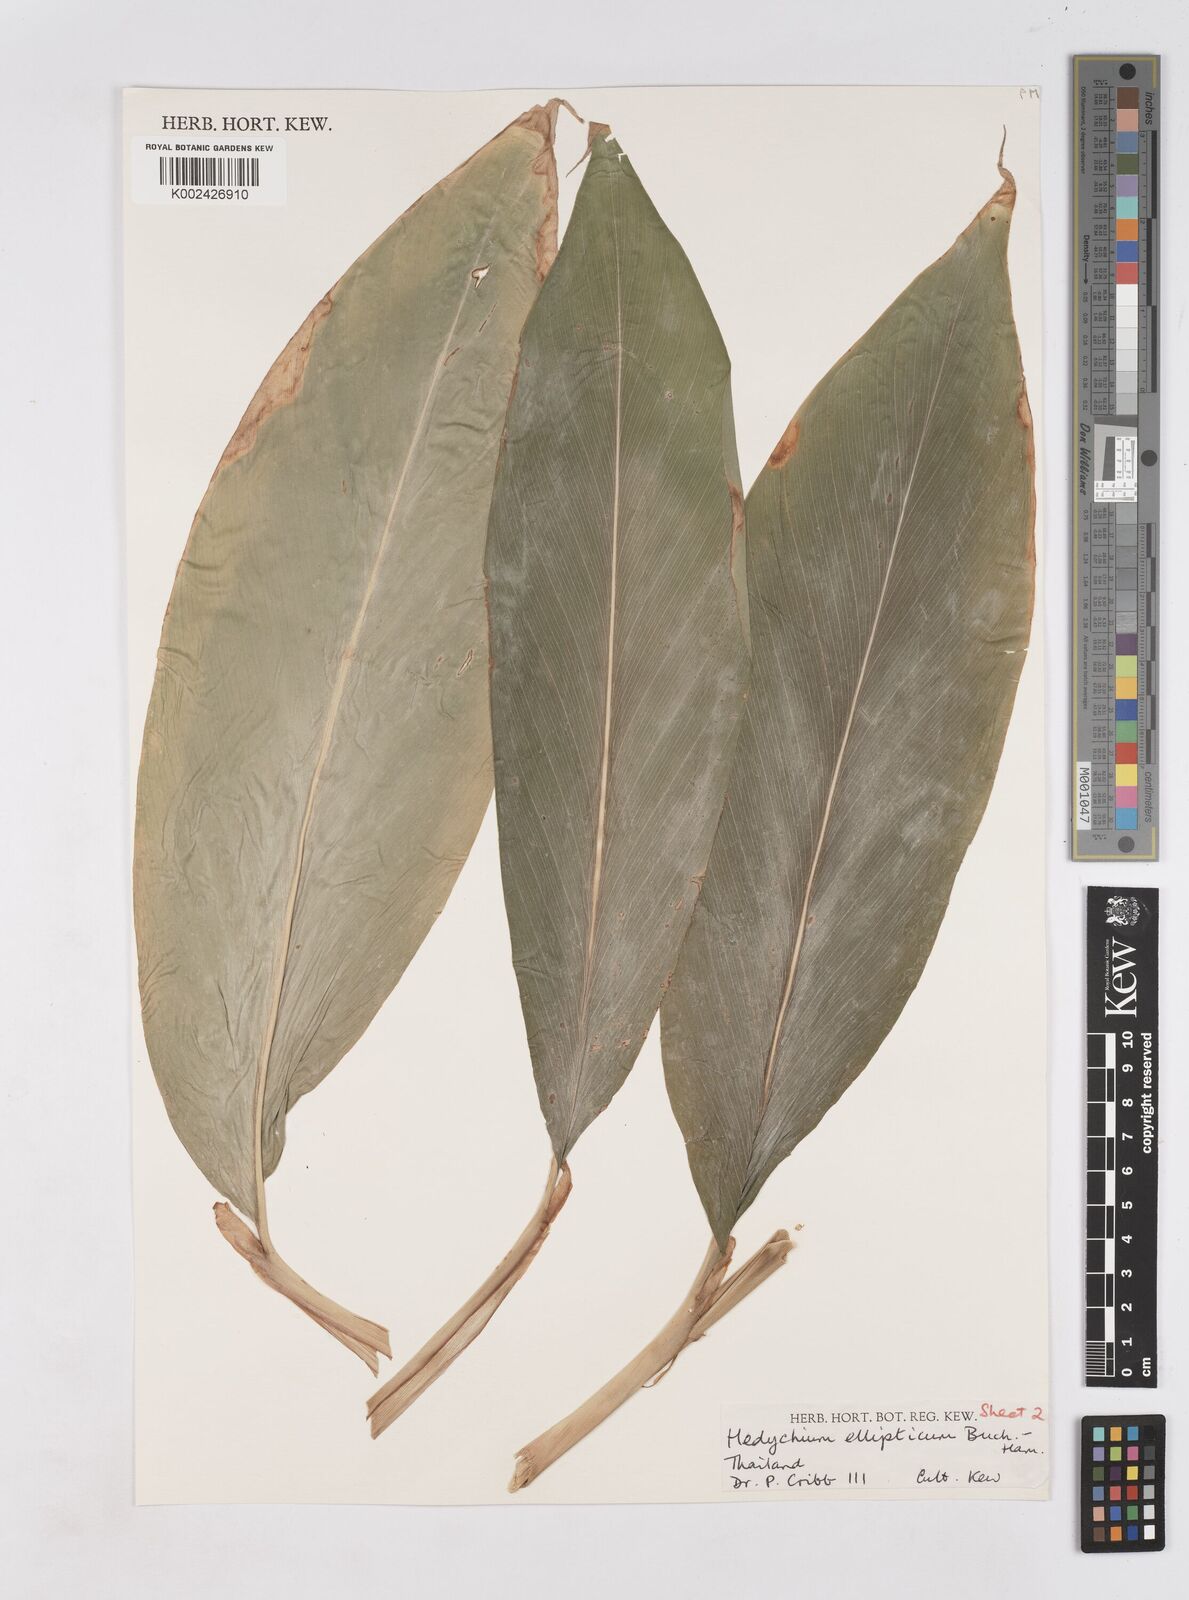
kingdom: Plantae
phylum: Tracheophyta
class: Liliopsida
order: Zingiberales
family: Zingiberaceae
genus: Hedychium
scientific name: Hedychium ellipticum
